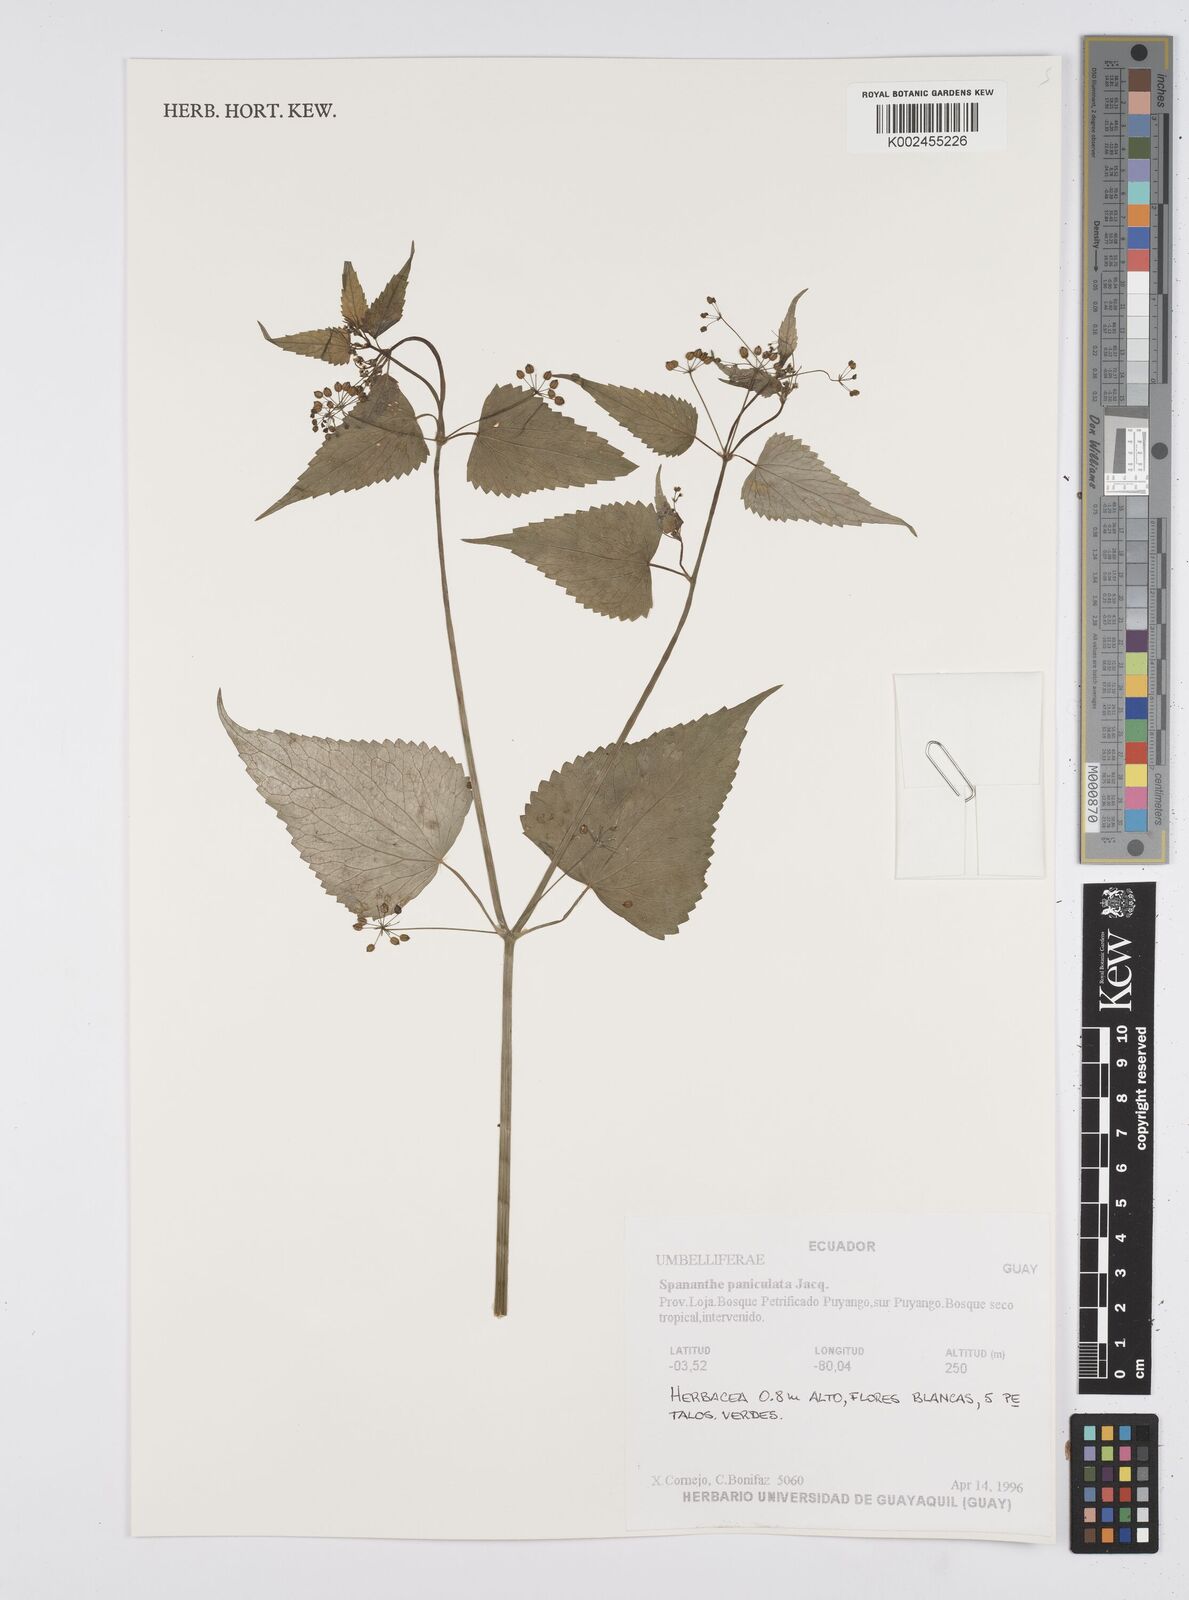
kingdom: Plantae
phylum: Tracheophyta
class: Magnoliopsida
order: Apiales
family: Apiaceae
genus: Azorella
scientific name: Azorella
